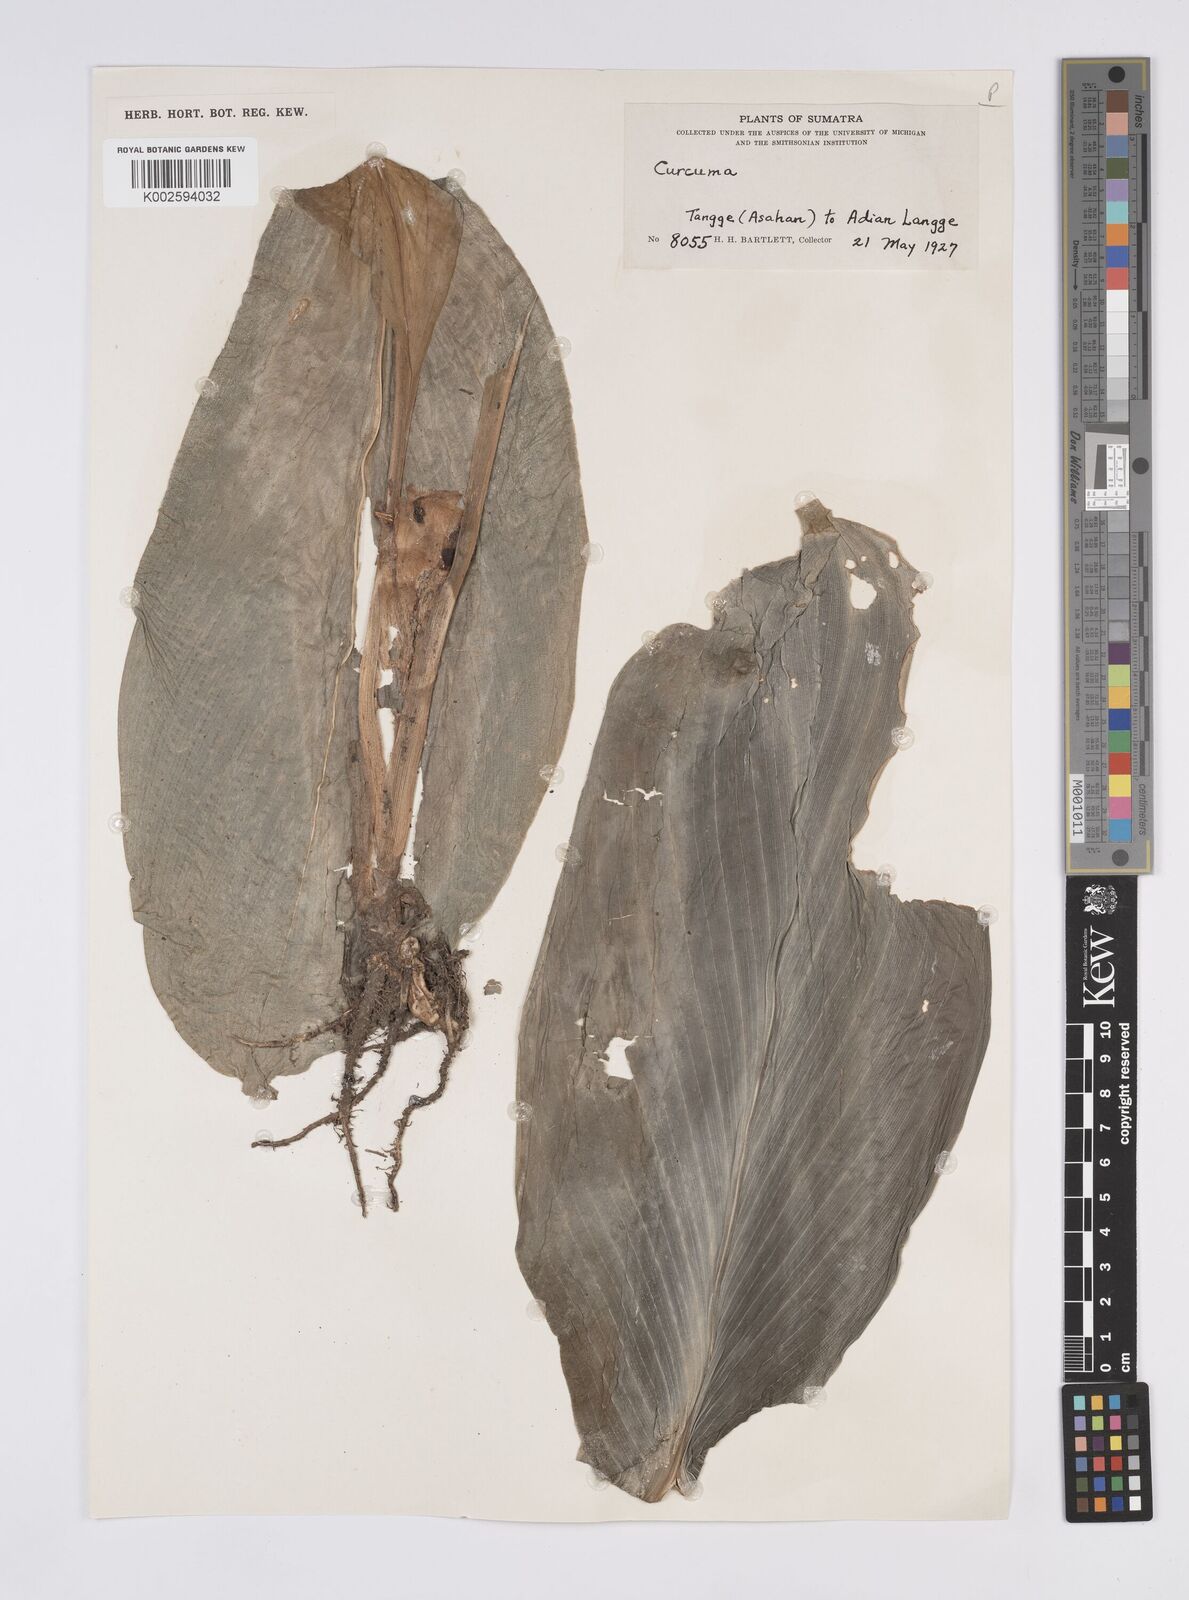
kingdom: Plantae
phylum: Tracheophyta
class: Liliopsida
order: Zingiberales
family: Zingiberaceae
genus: Curcuma
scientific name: Curcuma
